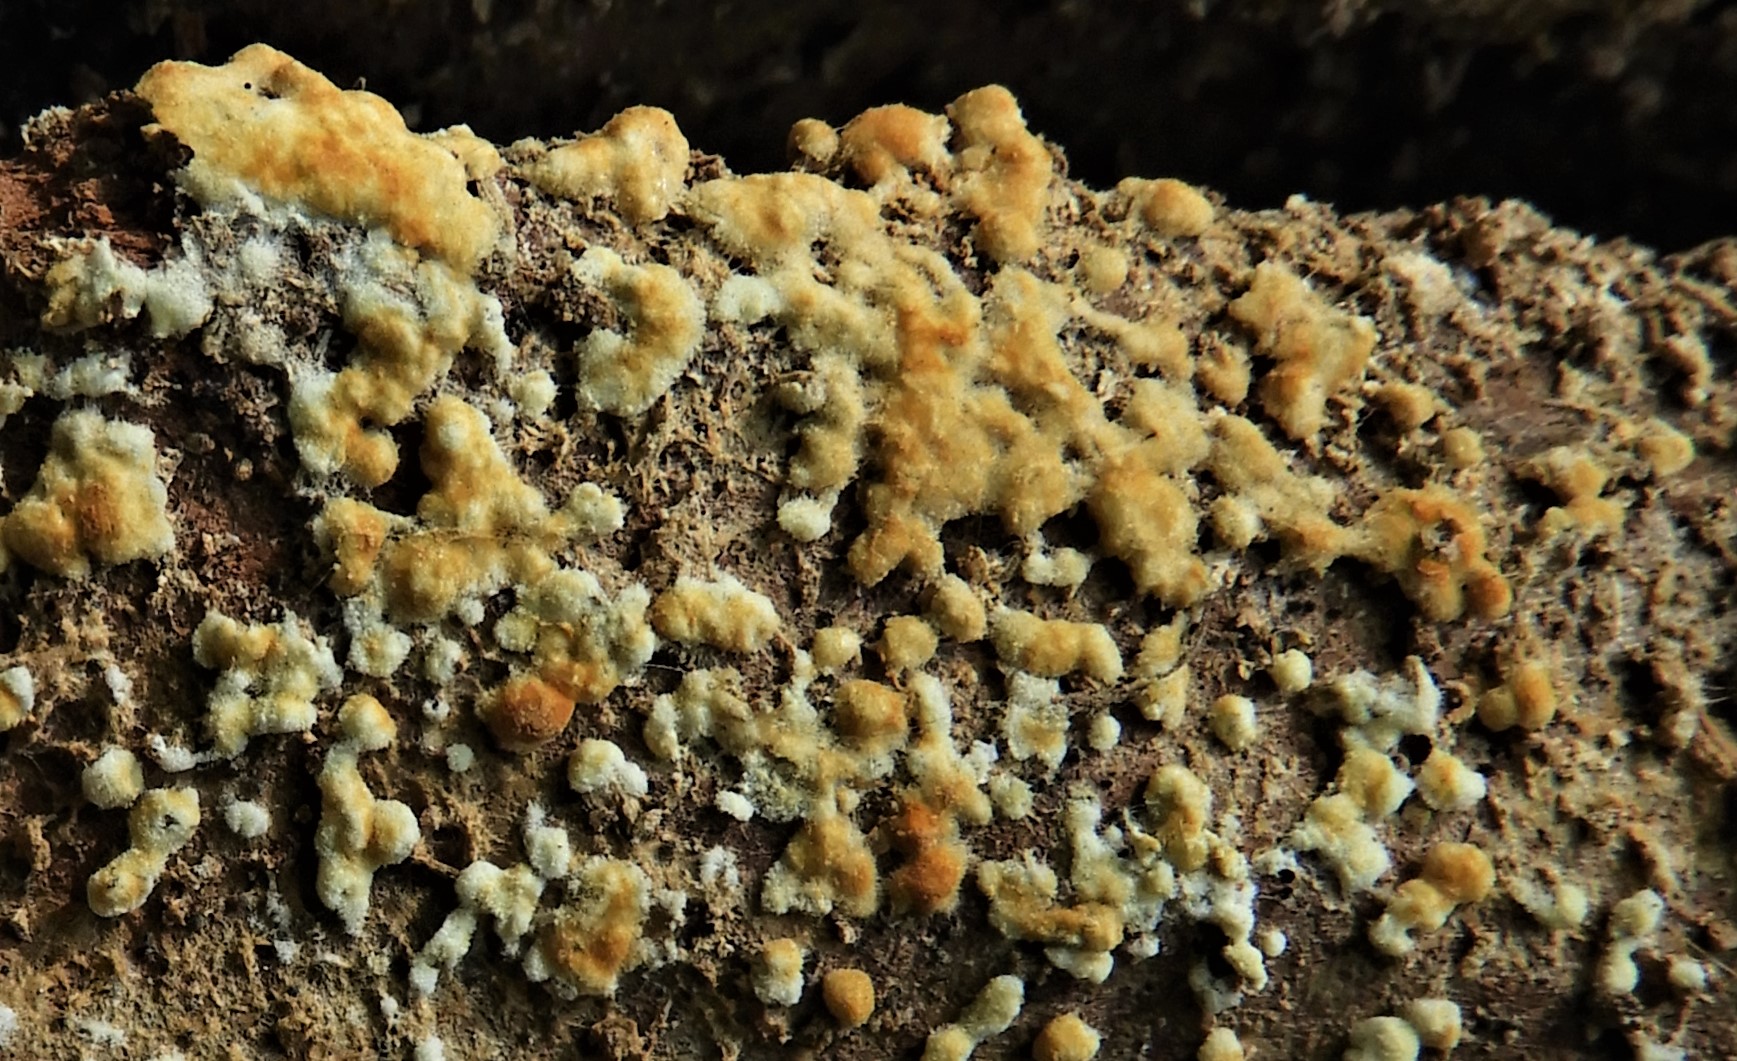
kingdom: Fungi
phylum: Basidiomycota
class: Agaricomycetes
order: Cantharellales
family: Botryobasidiaceae
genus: Botryobasidium
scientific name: Botryobasidium aureum
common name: gylden spindhinde
